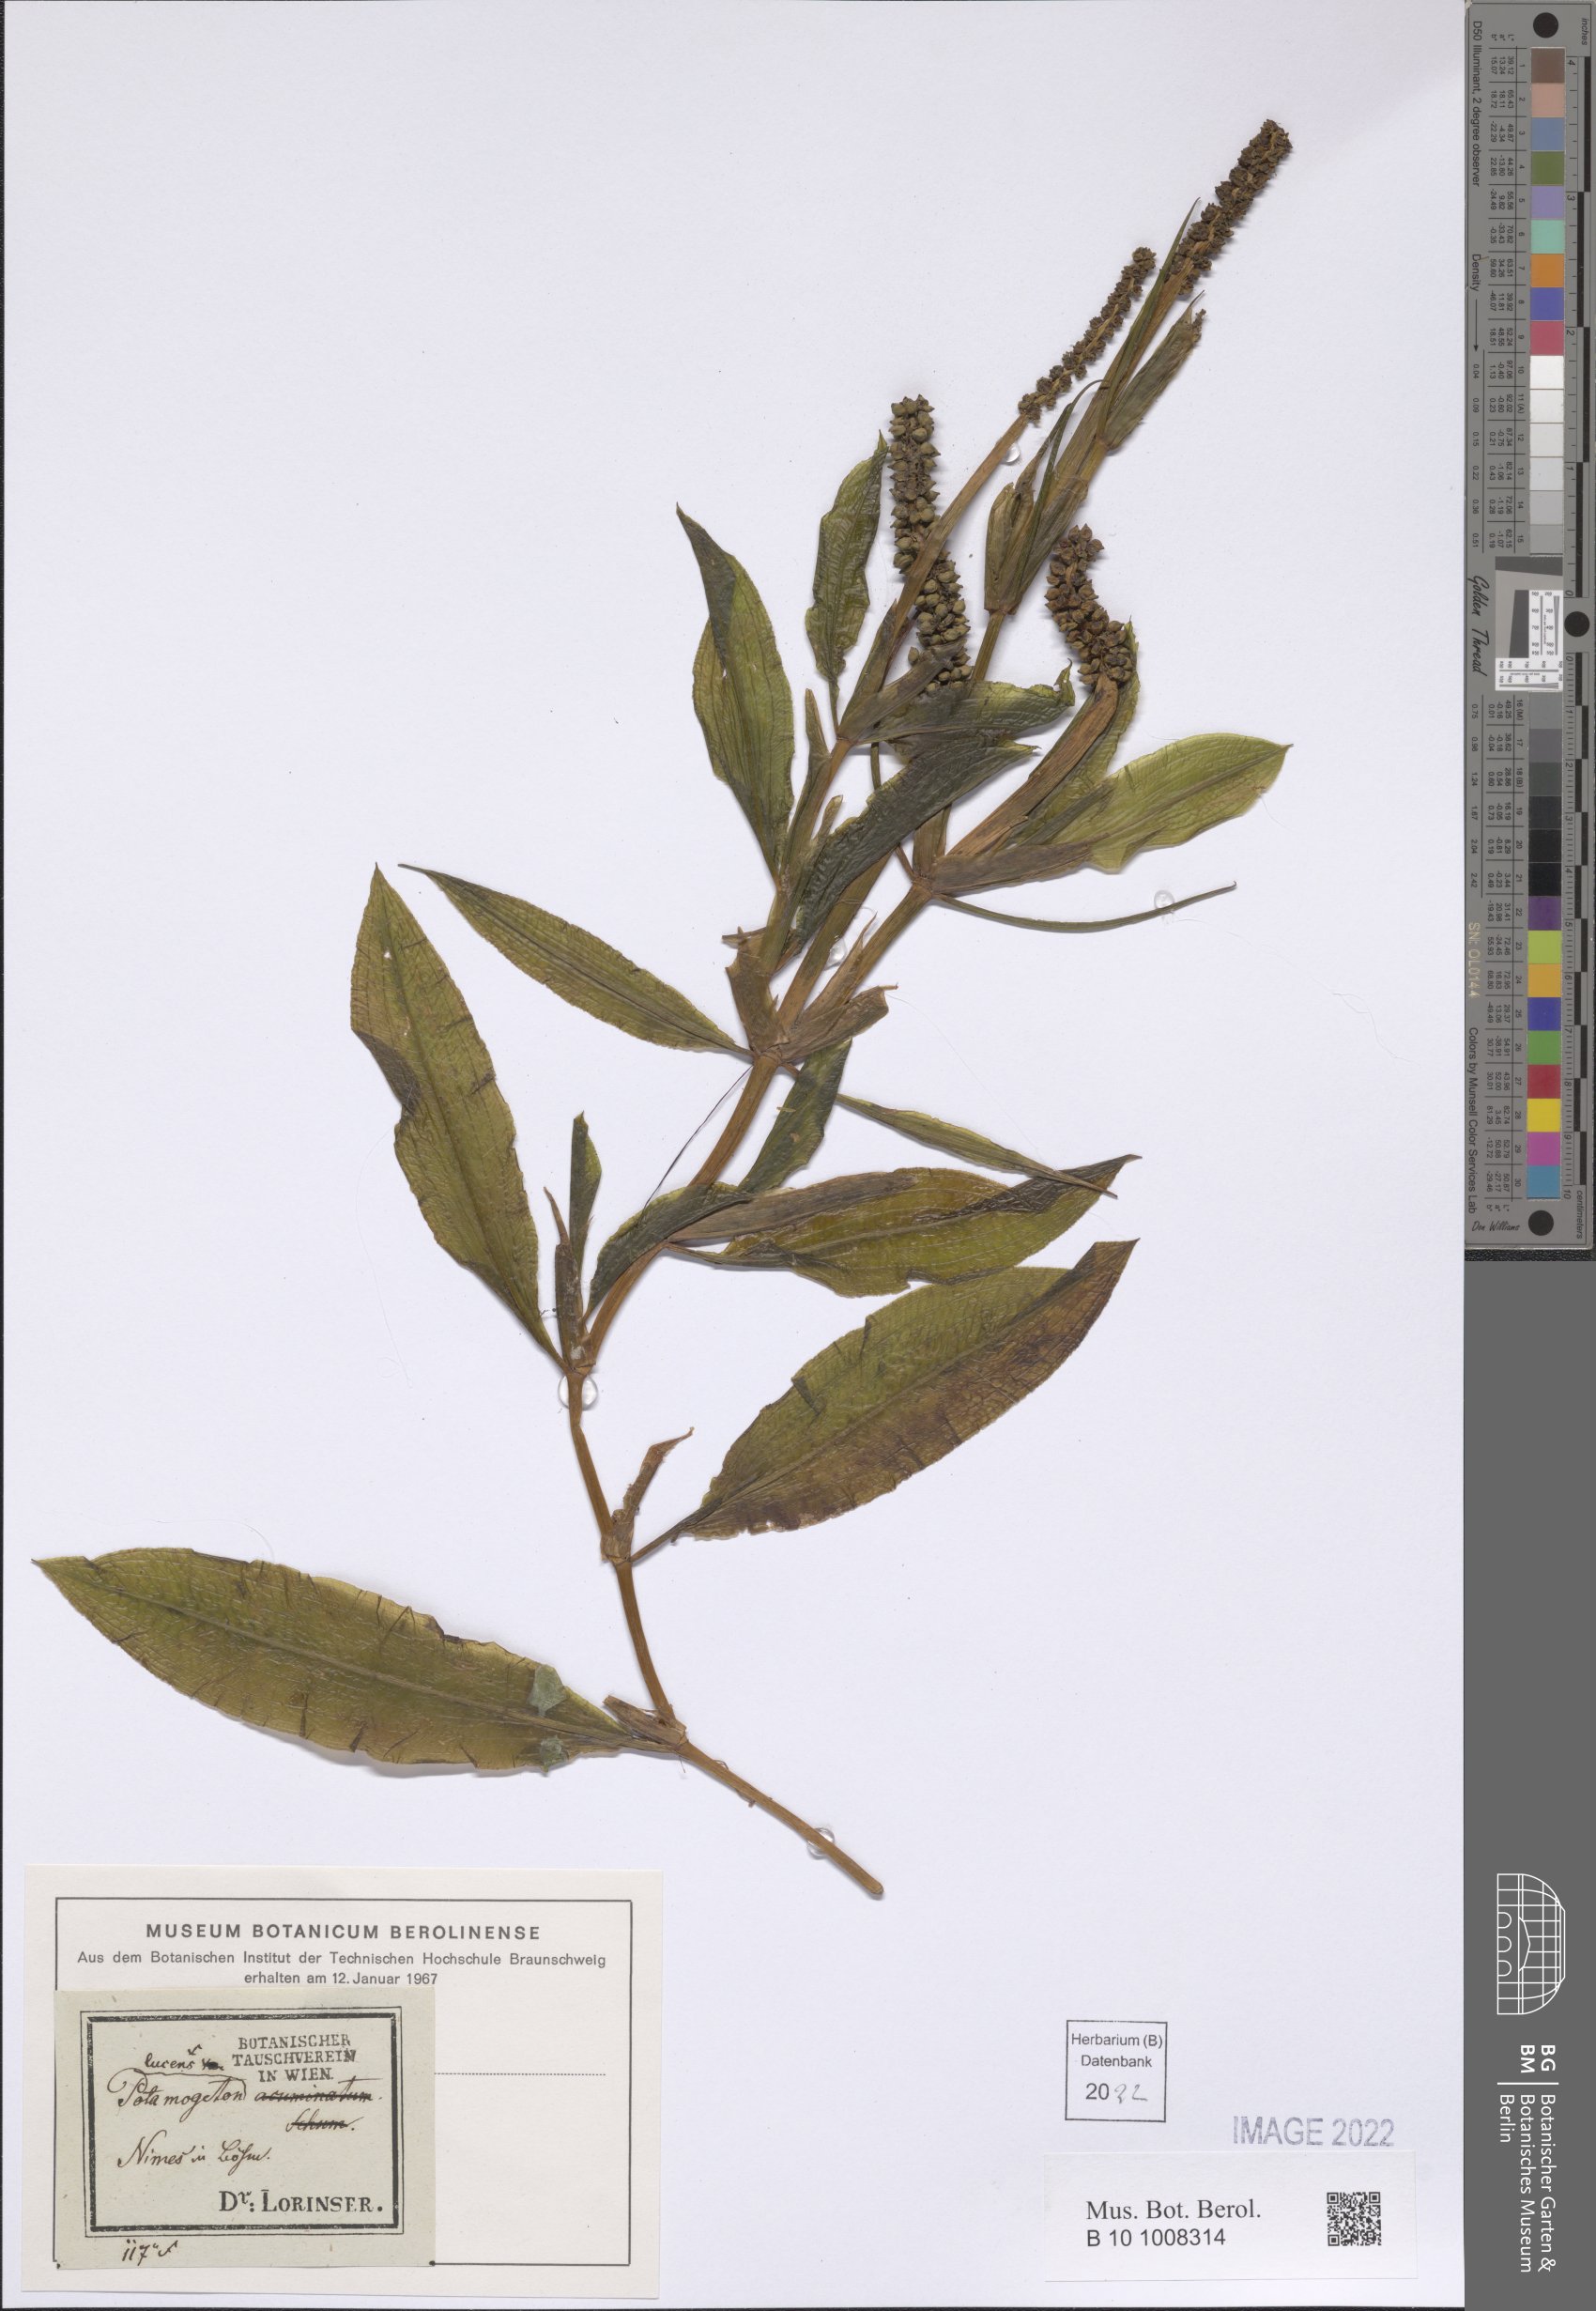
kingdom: Plantae
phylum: Tracheophyta
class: Liliopsida
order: Alismatales
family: Potamogetonaceae
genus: Potamogeton
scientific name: Potamogeton lucens
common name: Shining pondweed
